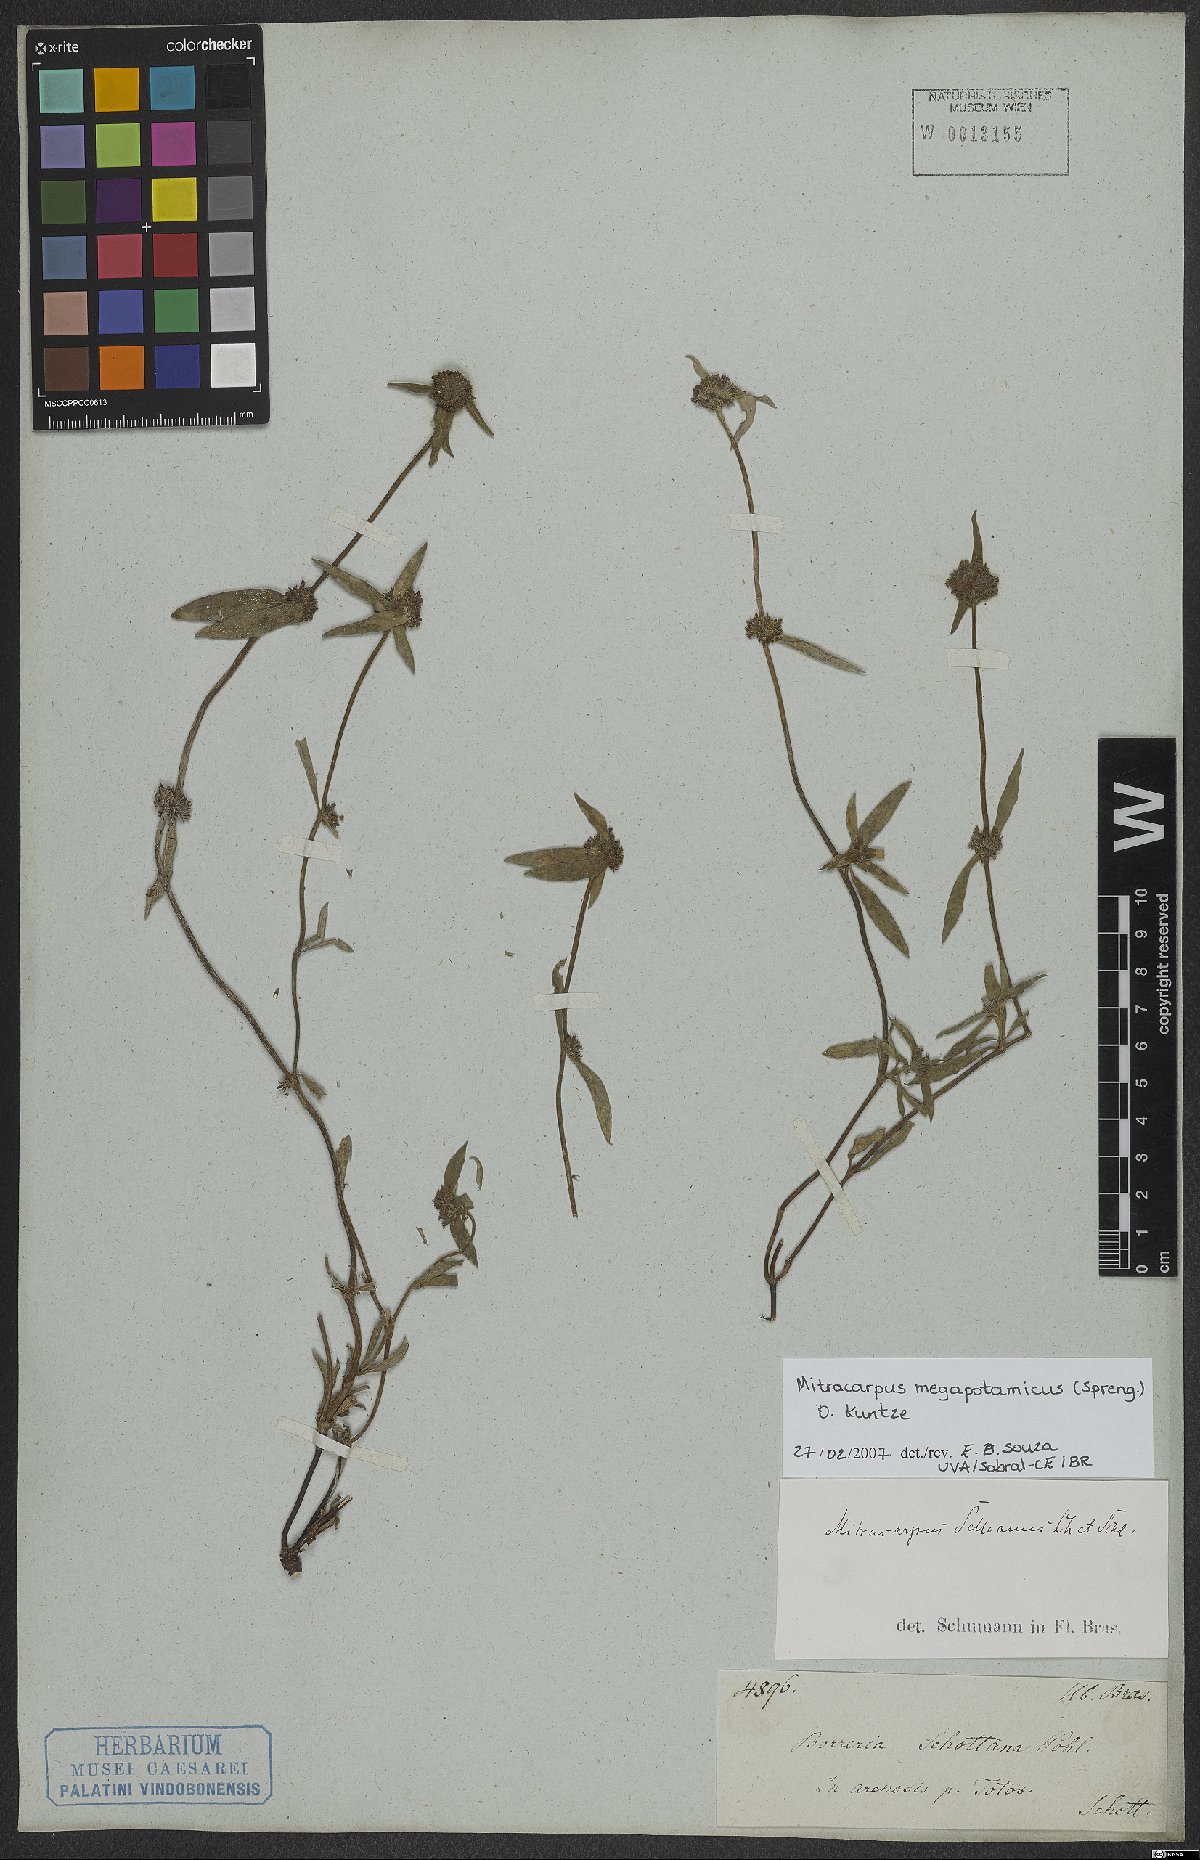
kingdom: Plantae
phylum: Tracheophyta
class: Magnoliopsida
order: Gentianales
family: Rubiaceae
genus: Mitracarpus
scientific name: Mitracarpus megapotamicus
